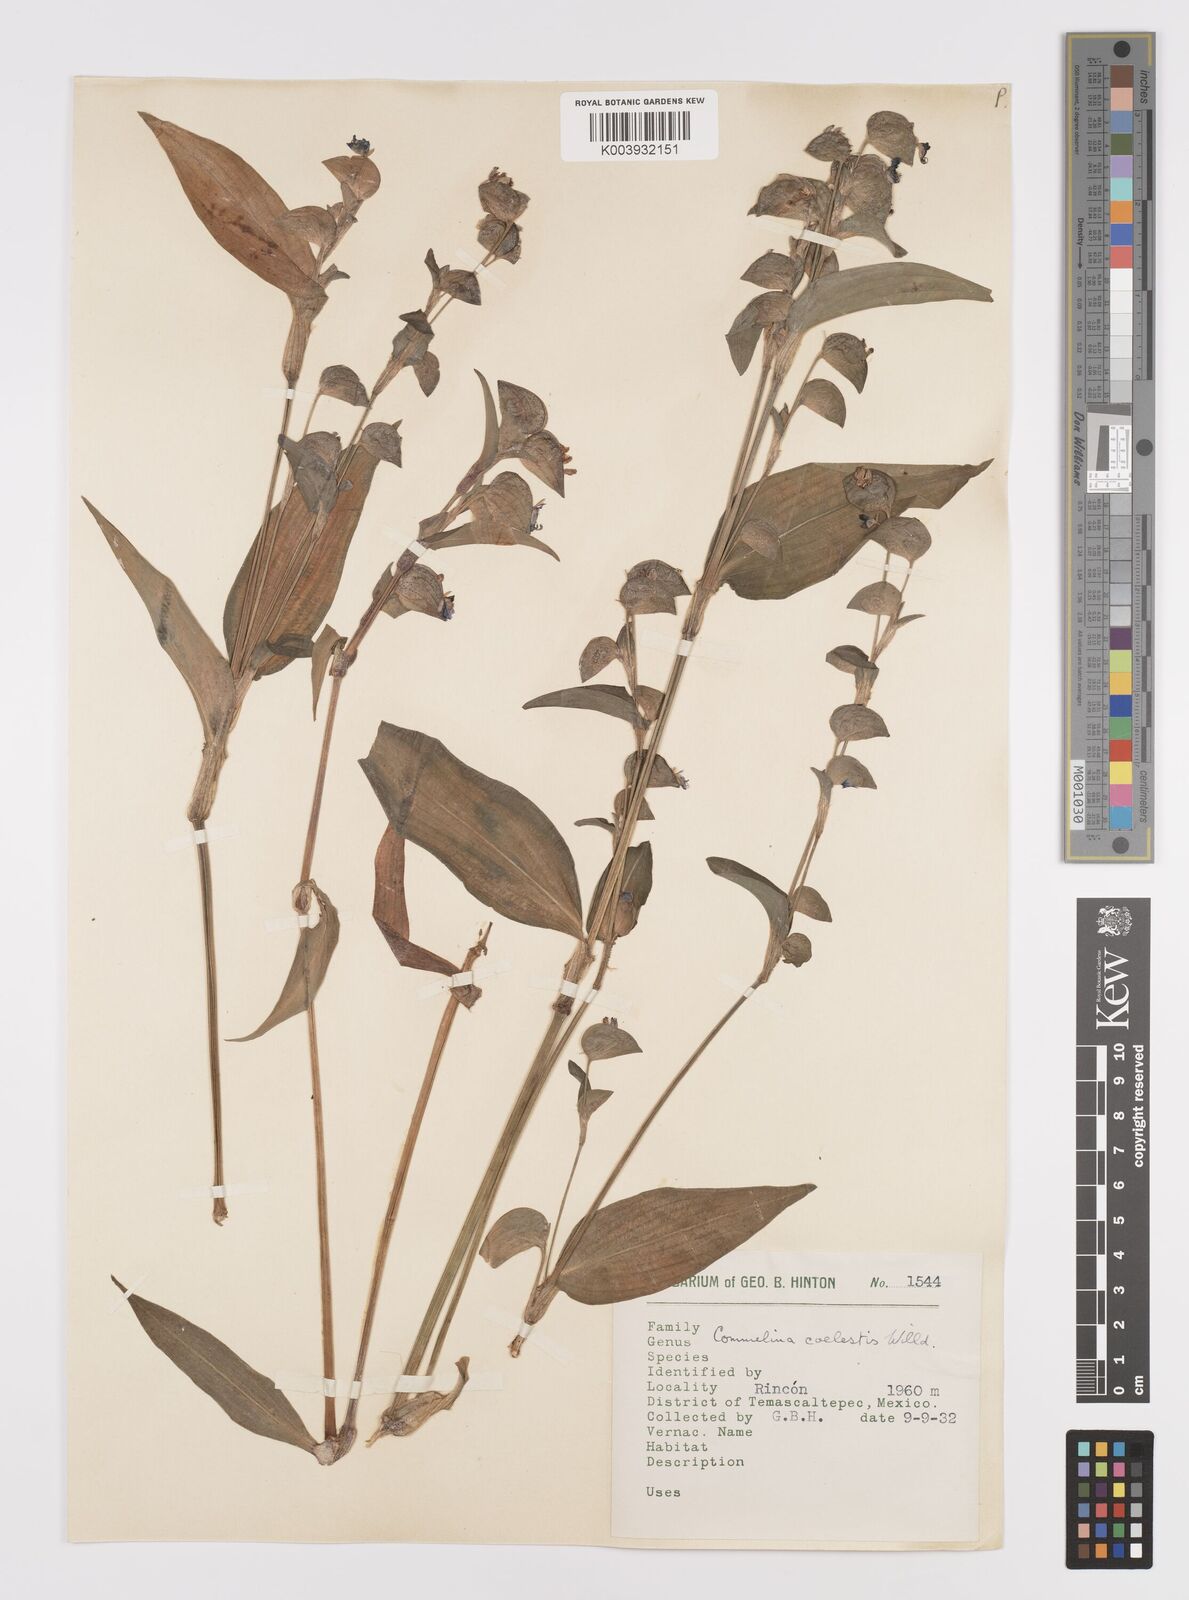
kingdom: Plantae
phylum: Tracheophyta
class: Liliopsida
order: Commelinales
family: Commelinaceae
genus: Commelina
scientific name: Commelina tuberosa
